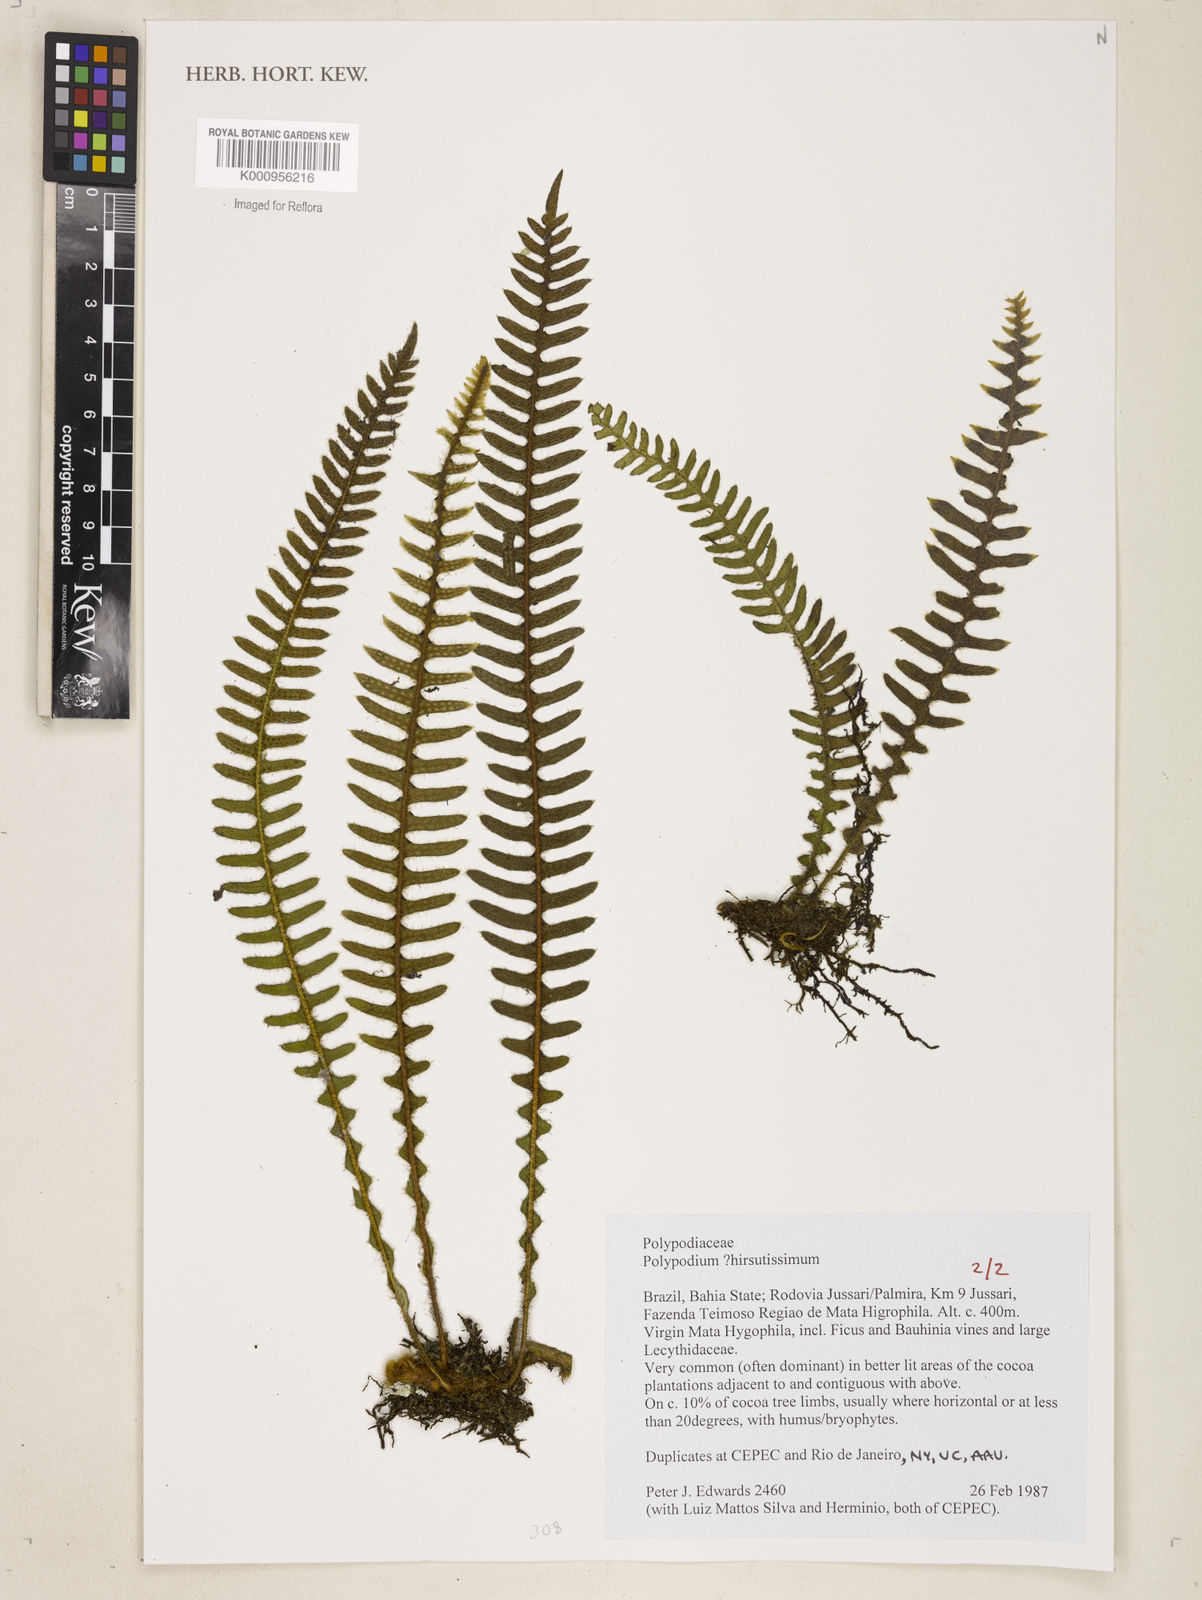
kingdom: Plantae
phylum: Tracheophyta
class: Polypodiopsida
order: Polypodiales
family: Polypodiaceae
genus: Pleopeltis
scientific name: Pleopeltis hirsutissima
